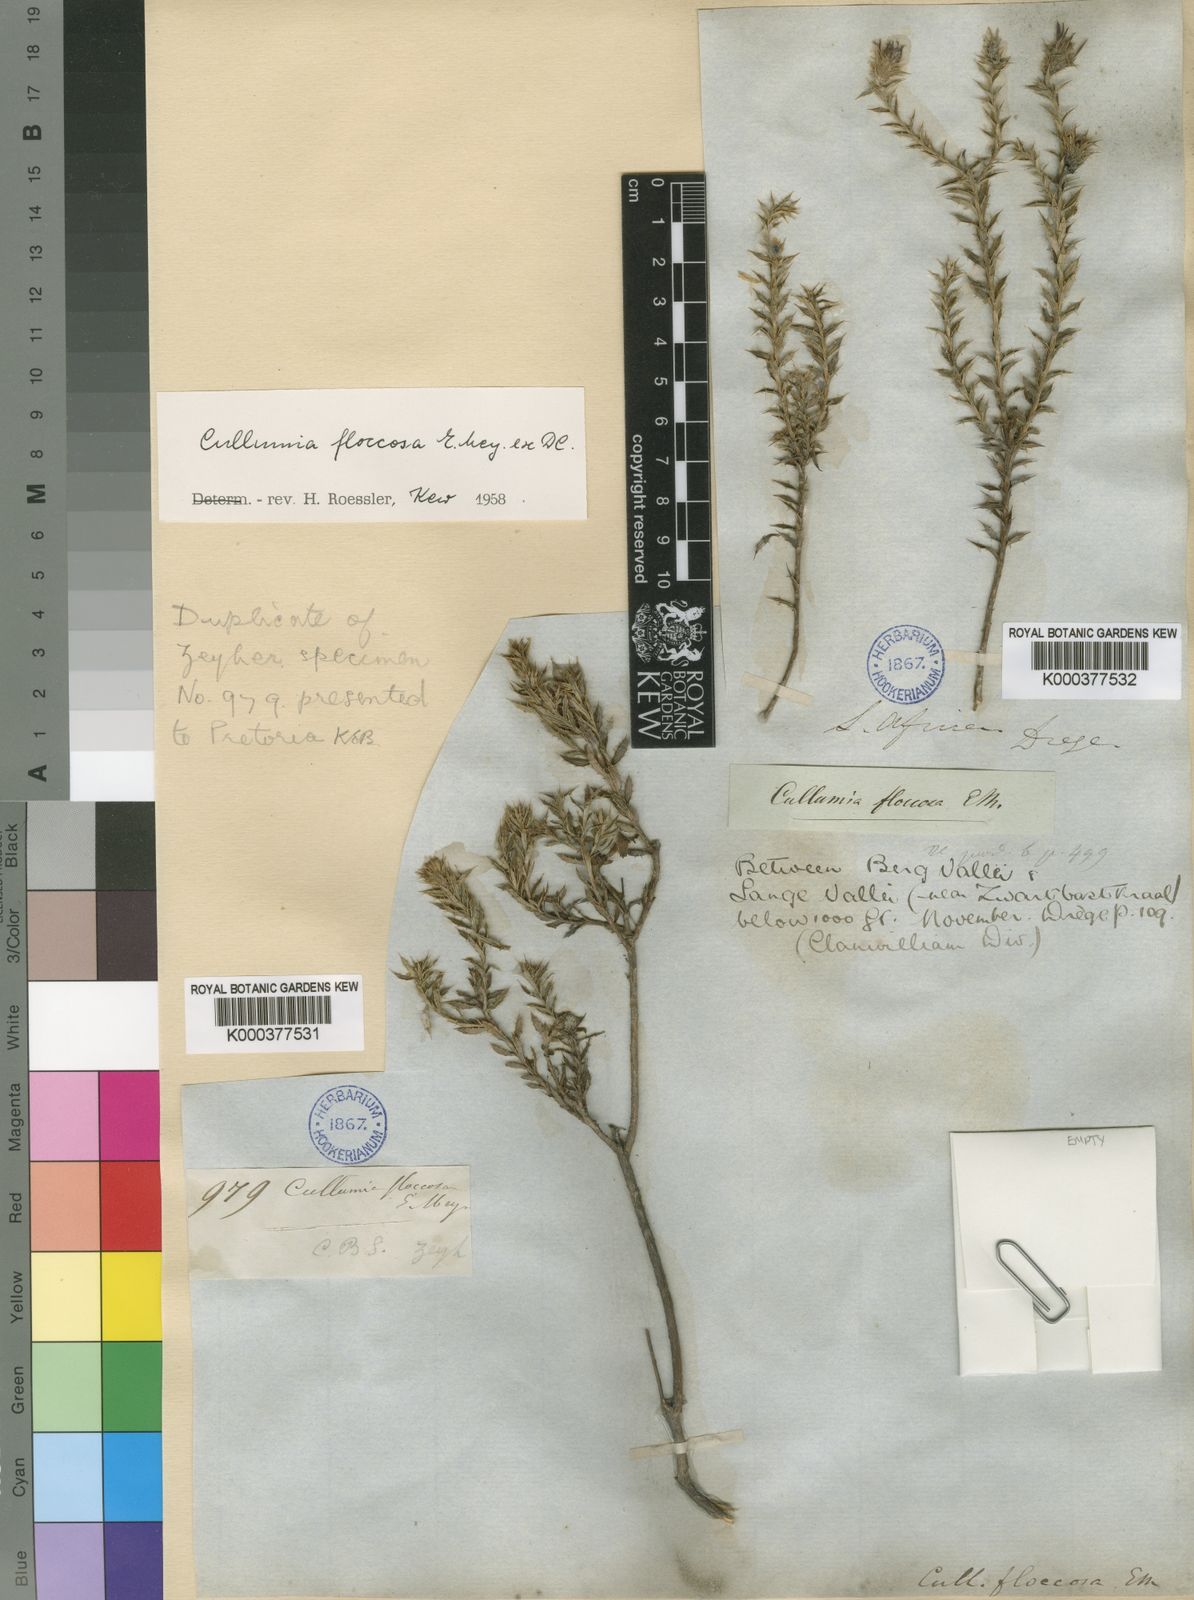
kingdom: Plantae
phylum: Tracheophyta
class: Magnoliopsida
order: Asterales
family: Asteraceae
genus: Cullumia
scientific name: Cullumia floccosa
